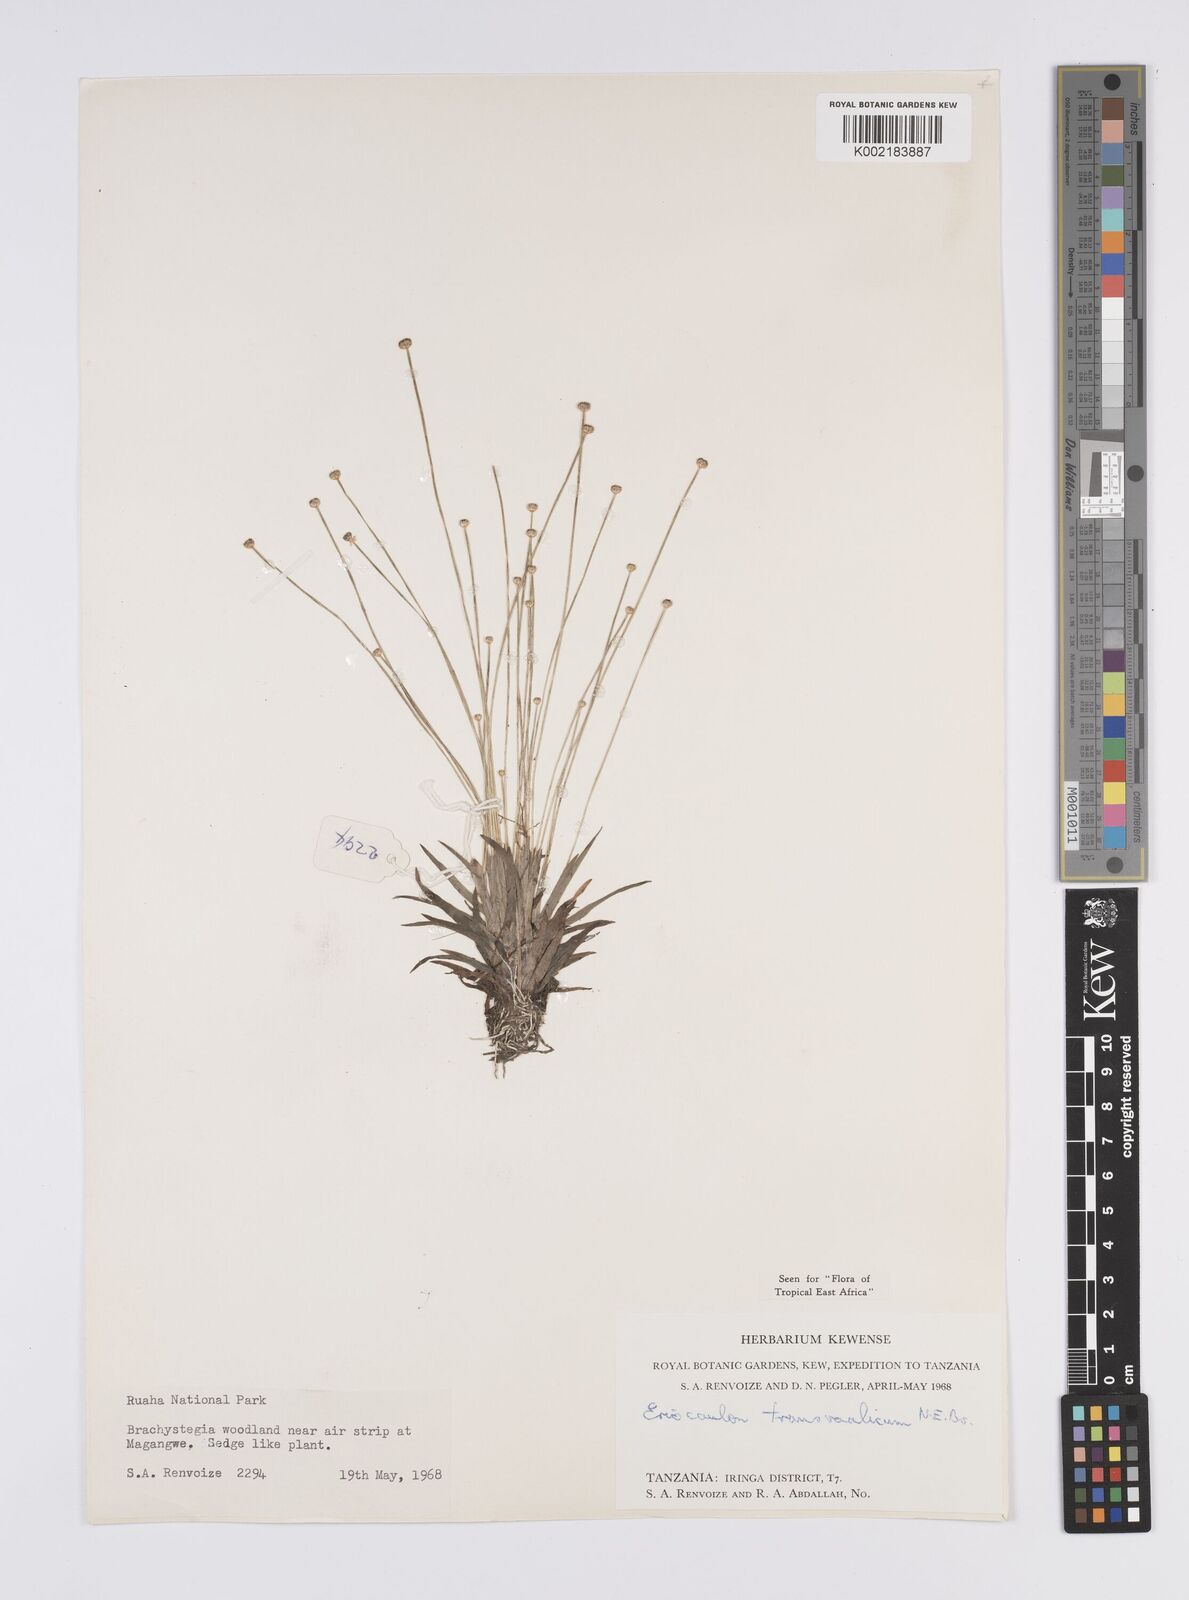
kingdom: Plantae
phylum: Tracheophyta
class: Liliopsida
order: Poales
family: Eriocaulaceae
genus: Eriocaulon
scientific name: Eriocaulon transvaalicum
